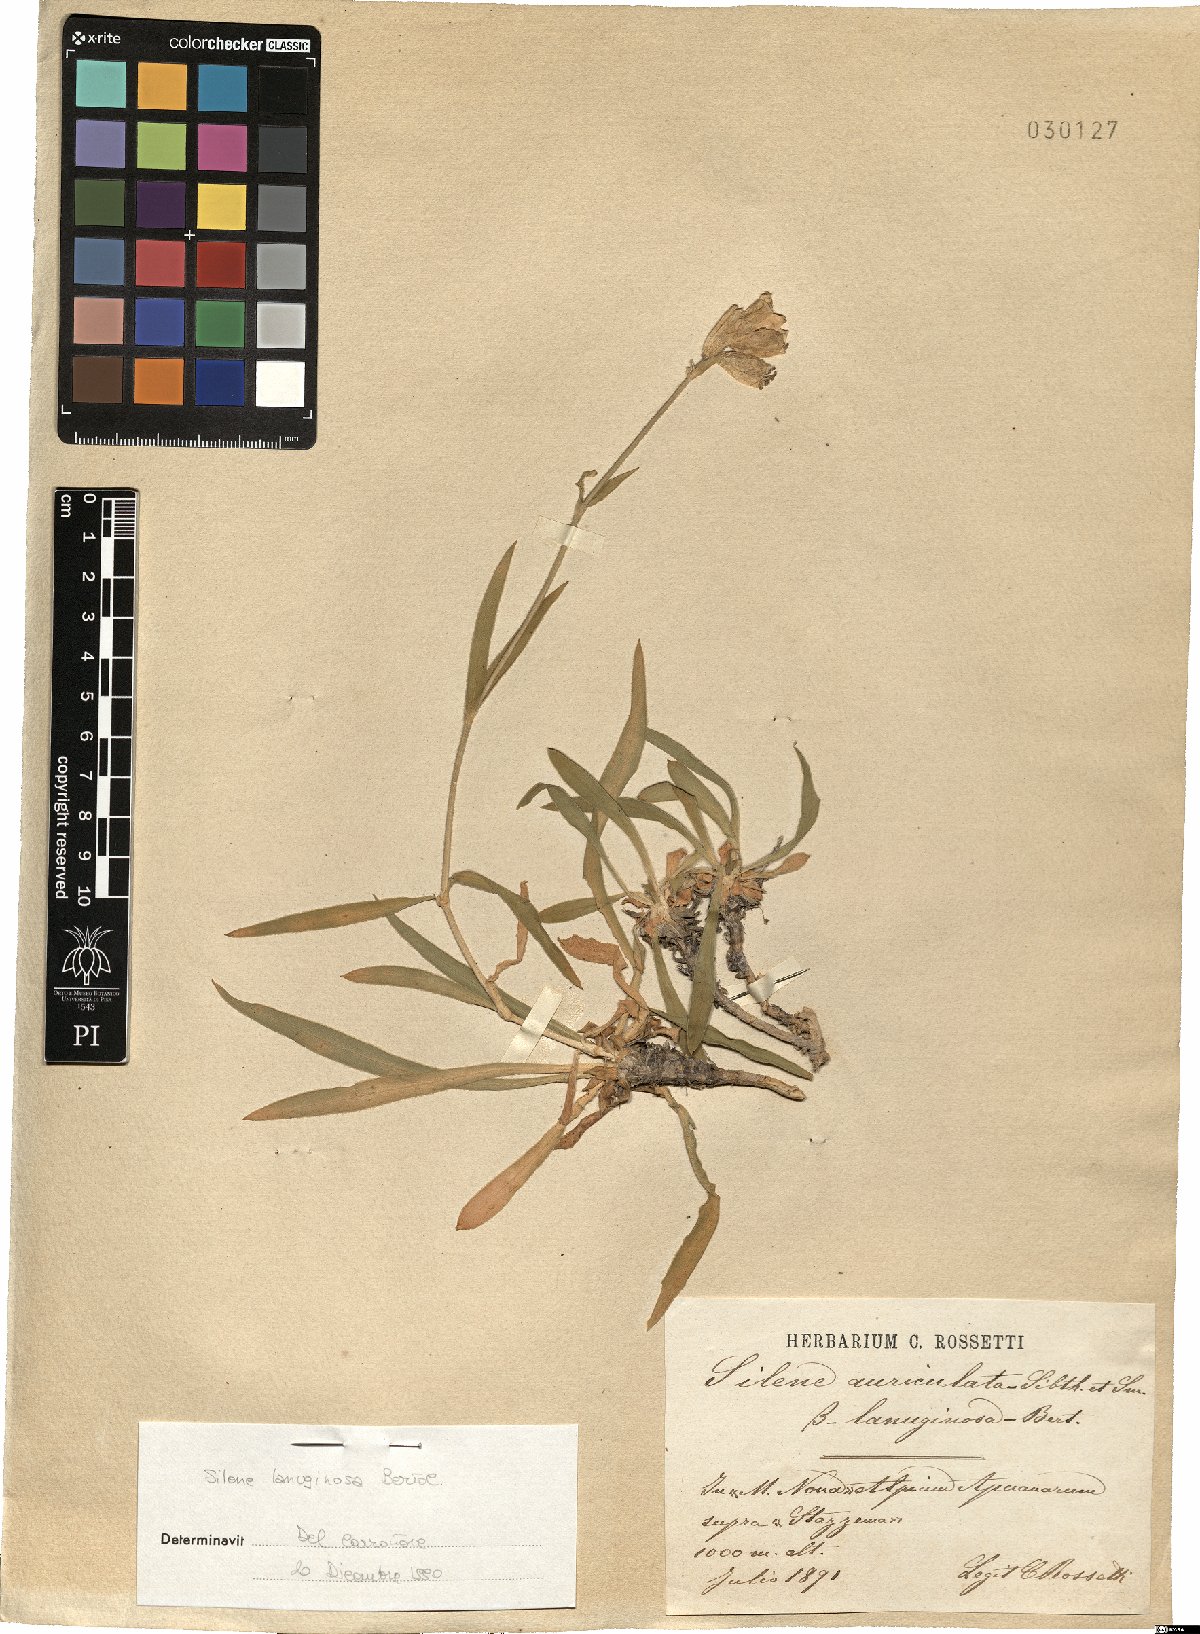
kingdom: Plantae
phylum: Tracheophyta
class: Magnoliopsida
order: Caryophyllales
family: Caryophyllaceae
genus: Silene
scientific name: Silene auriculata
